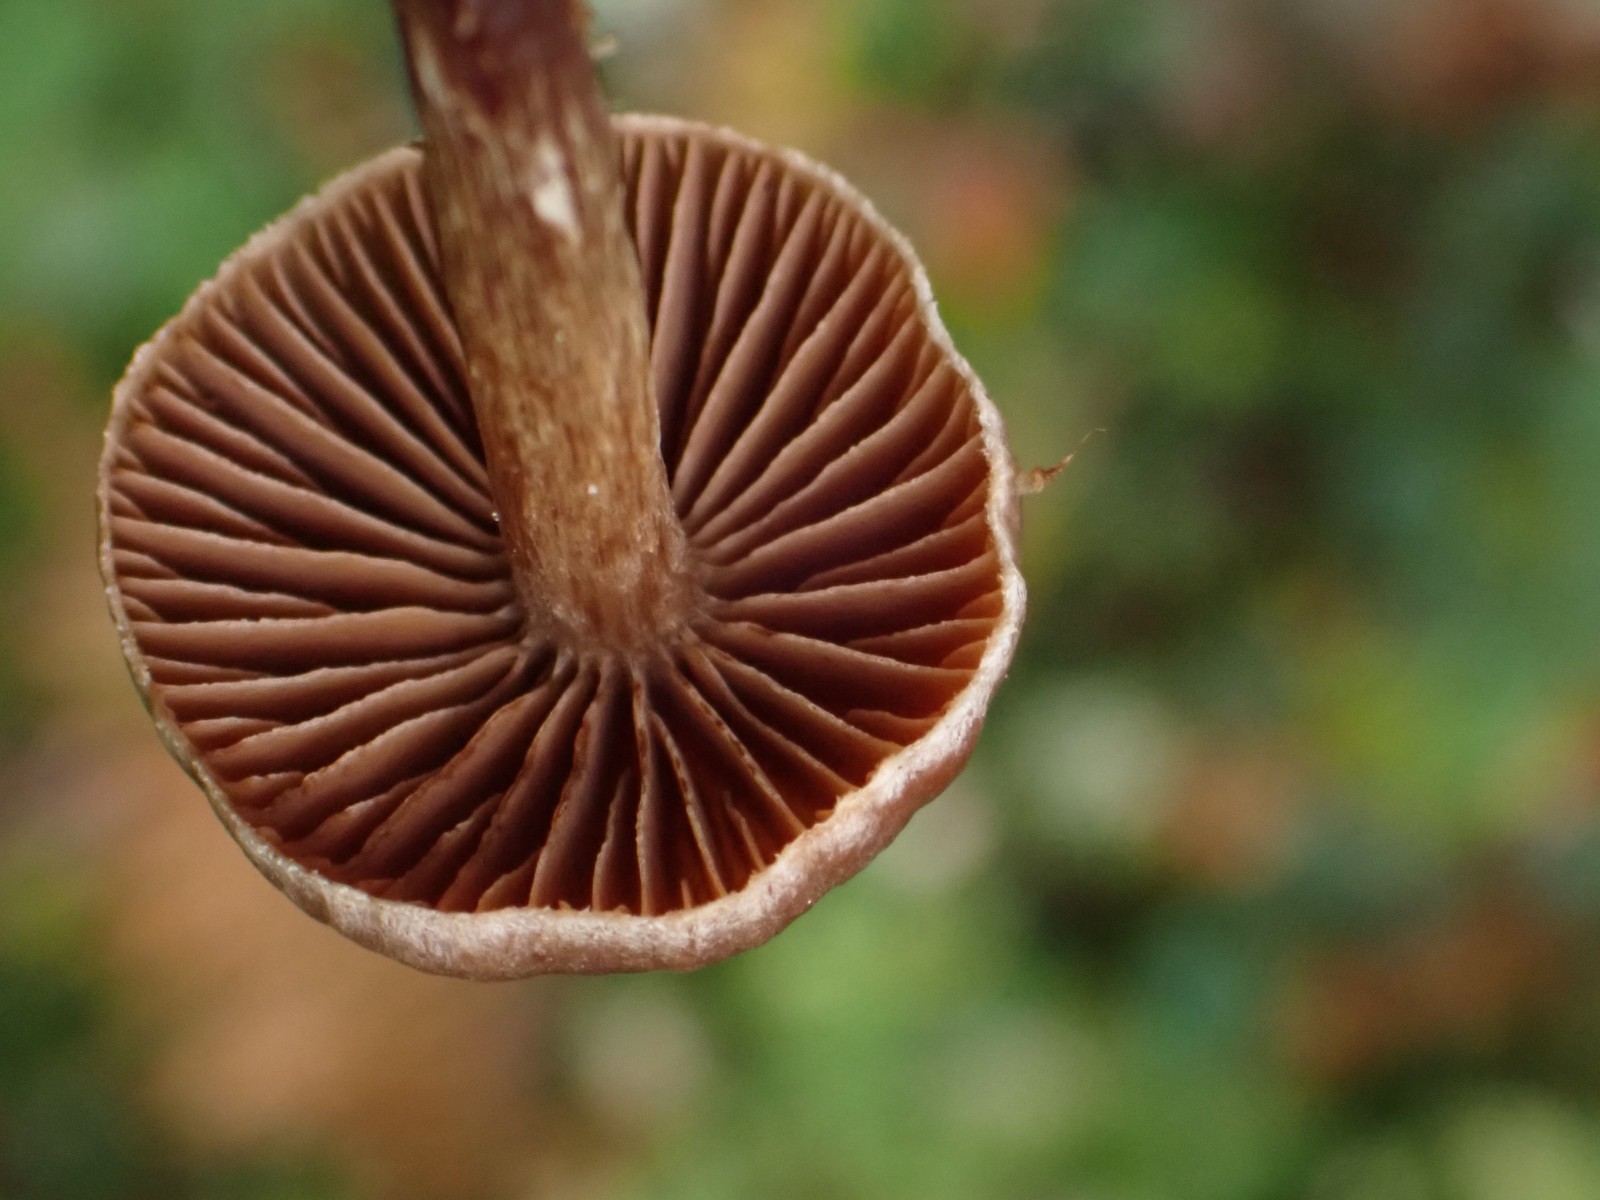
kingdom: Fungi
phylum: Basidiomycota
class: Agaricomycetes
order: Agaricales
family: Cortinariaceae
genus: Cortinarius
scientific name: Cortinarius
